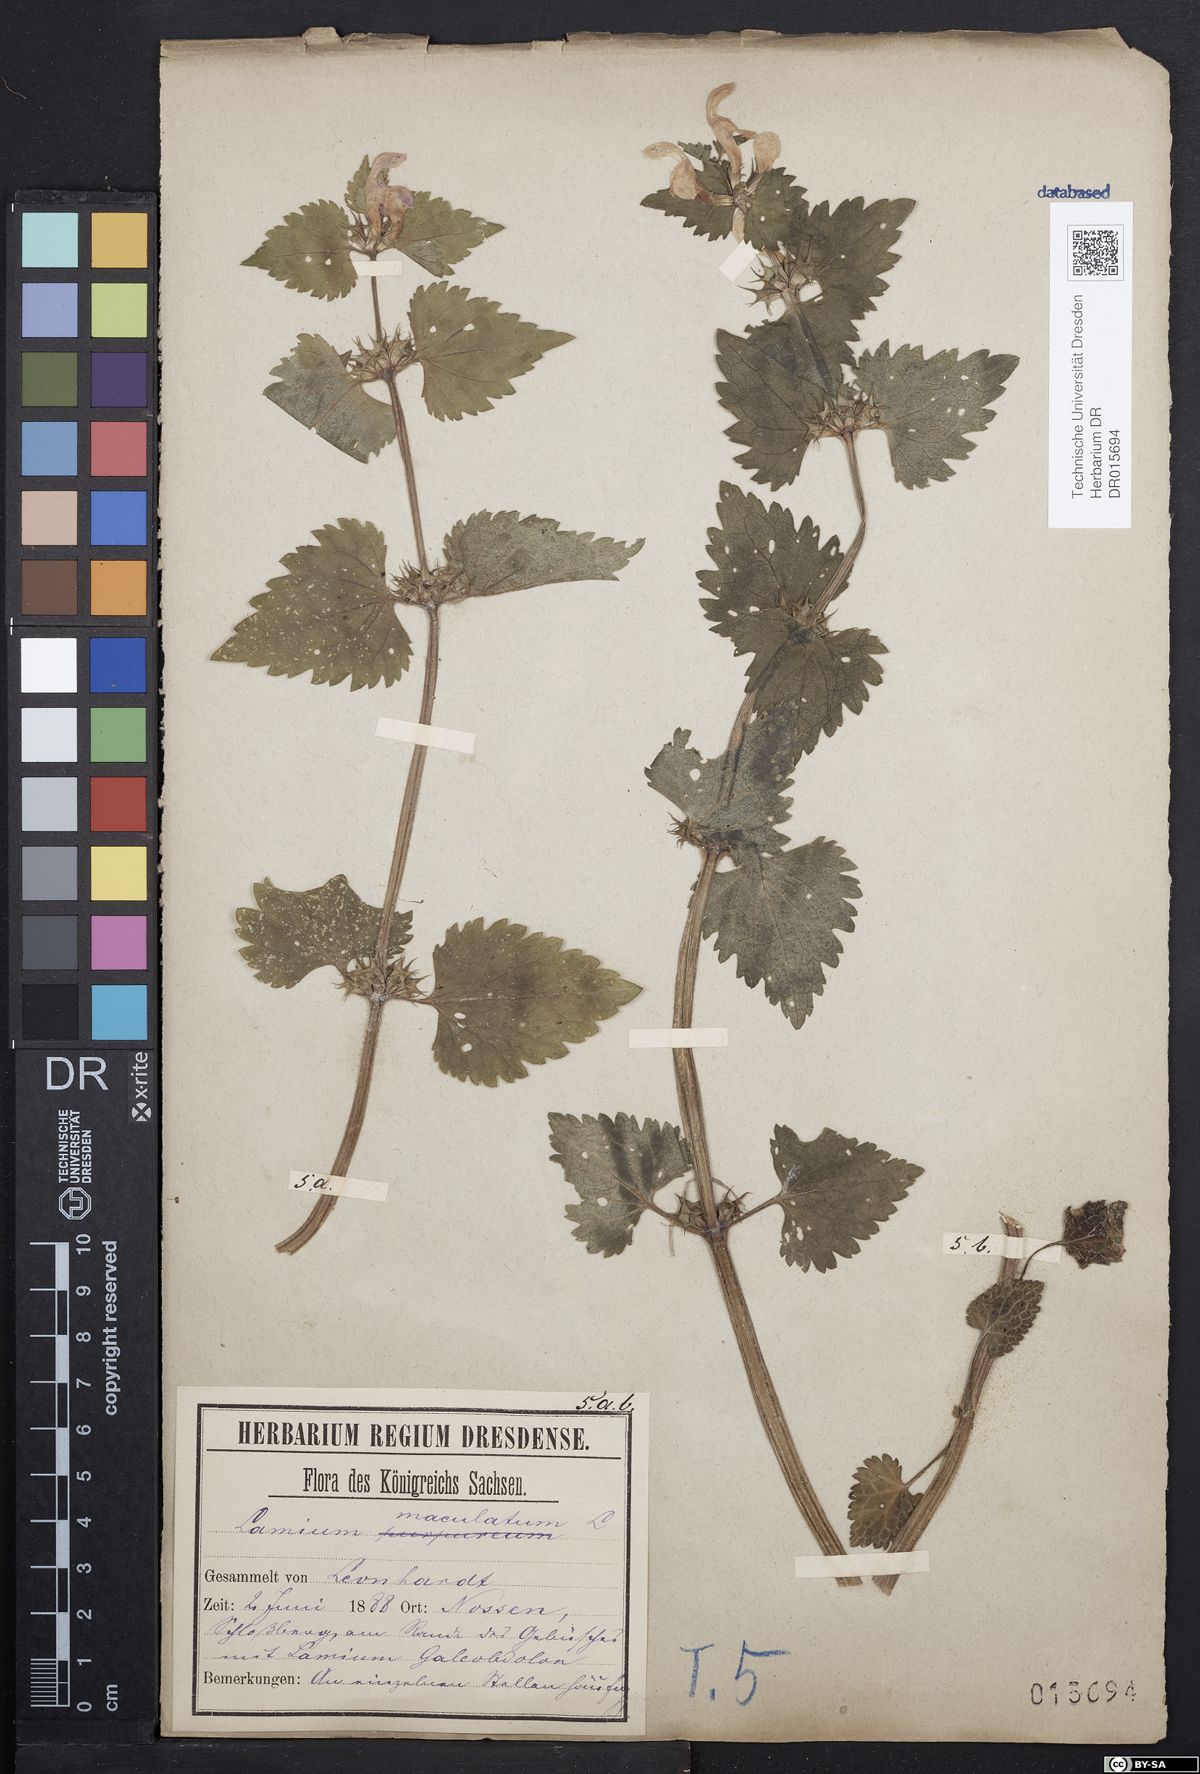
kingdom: Plantae
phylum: Tracheophyta
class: Magnoliopsida
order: Lamiales
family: Lamiaceae
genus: Lamium
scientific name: Lamium maculatum
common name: Spotted dead-nettle
